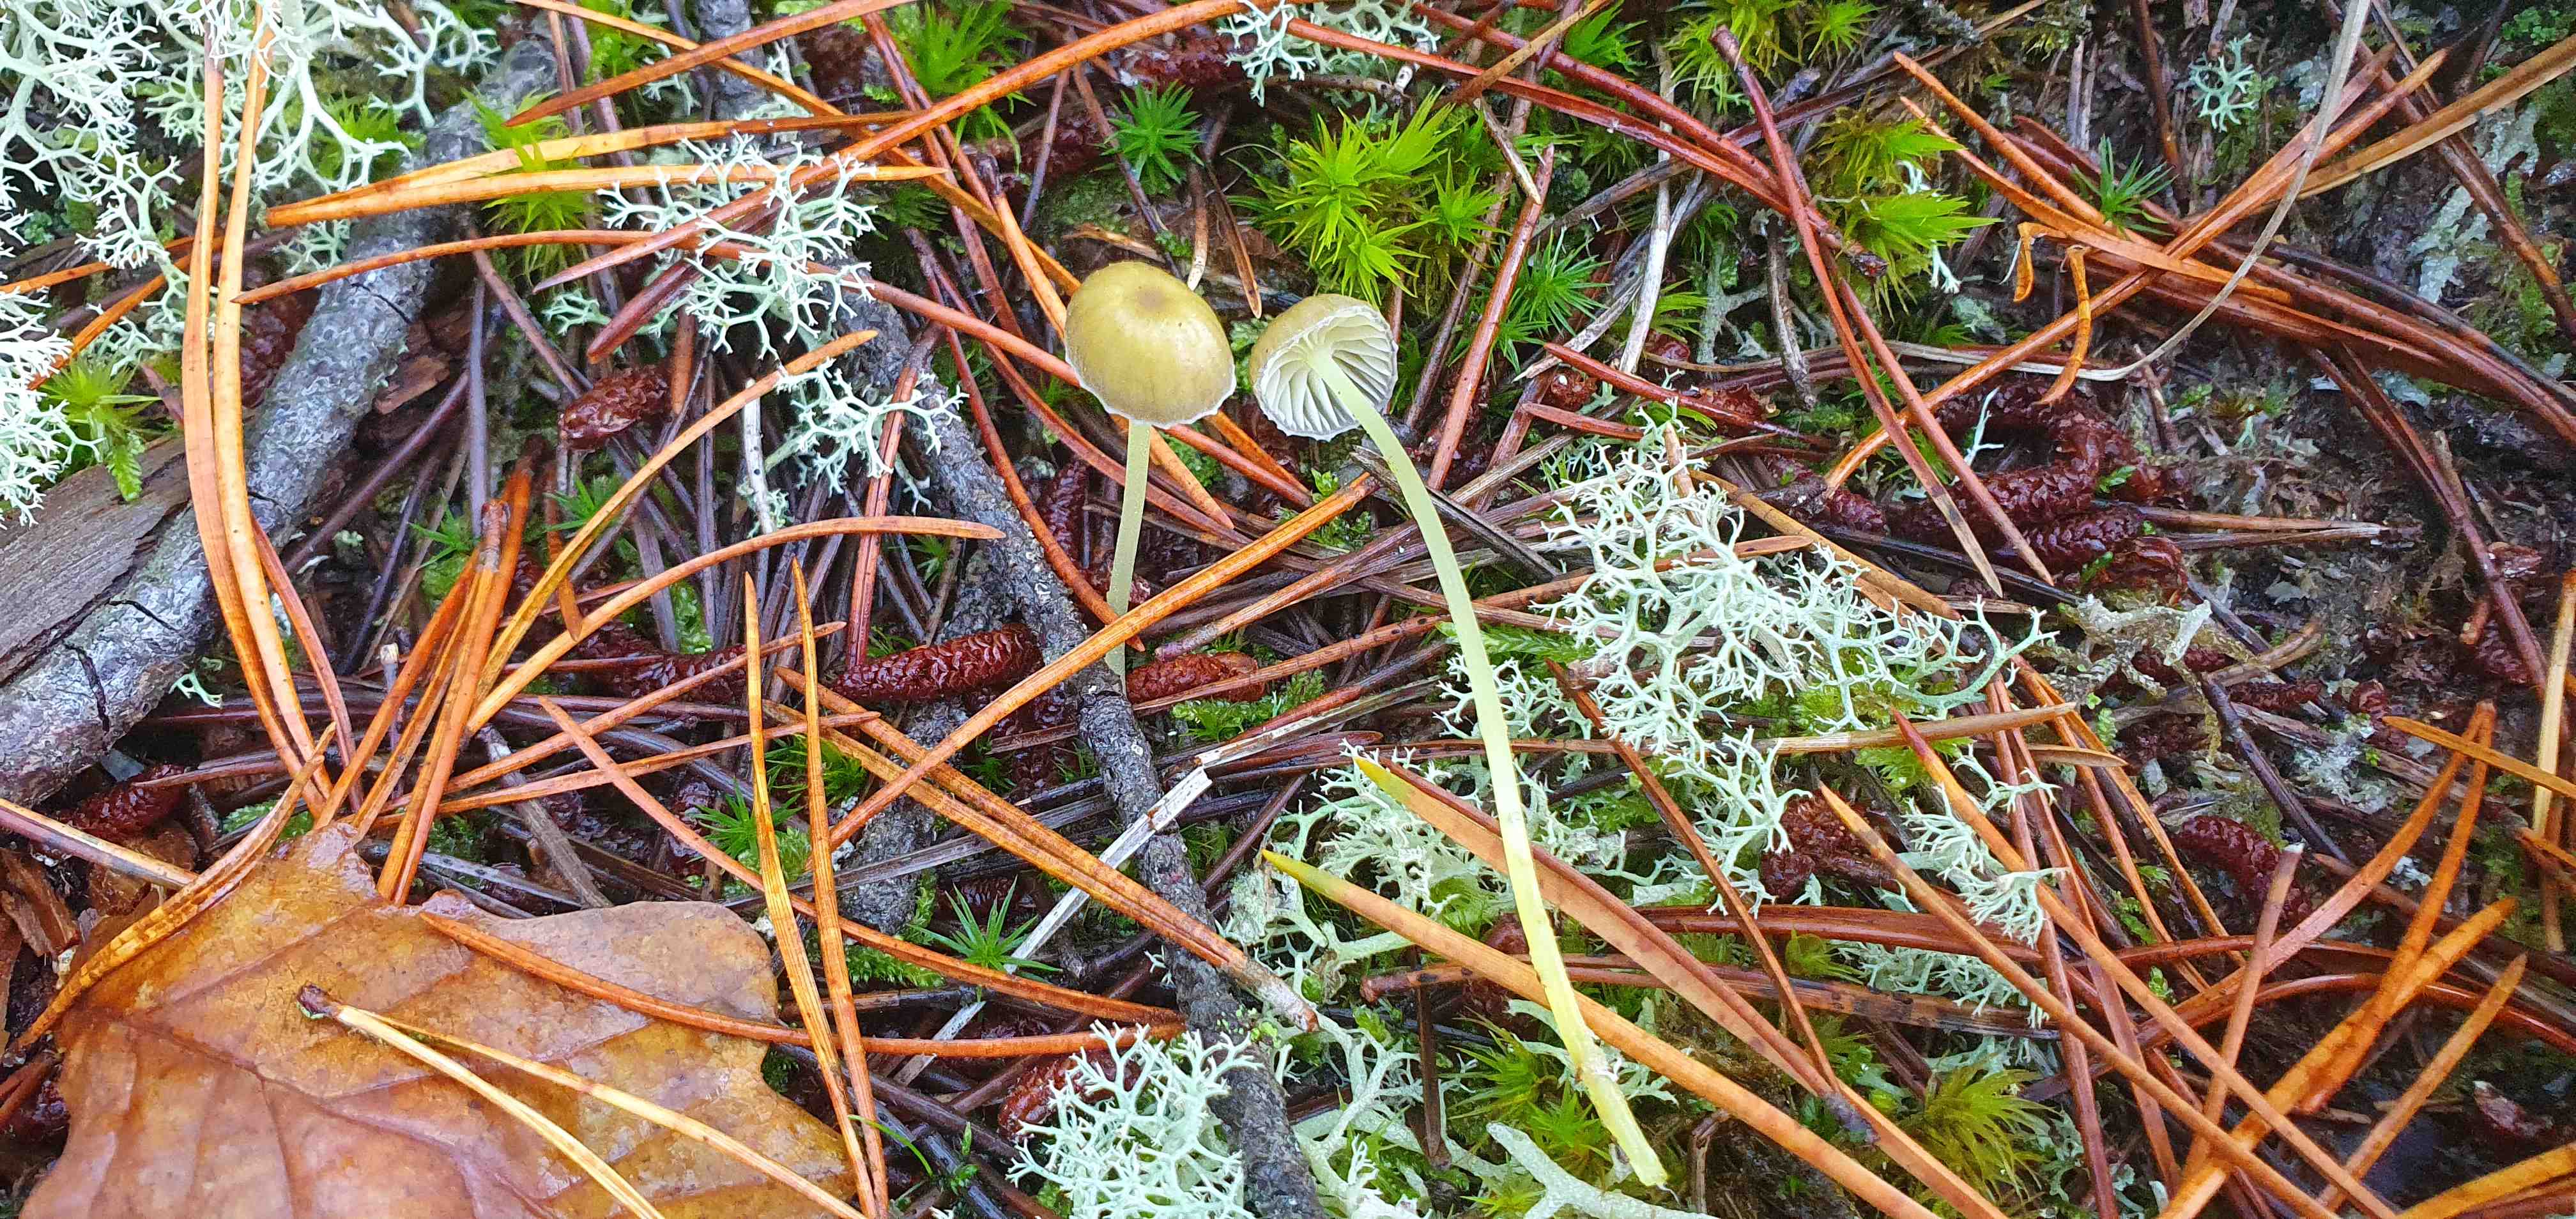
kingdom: Fungi
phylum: Basidiomycota
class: Agaricomycetes
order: Agaricales
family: Mycenaceae
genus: Mycena
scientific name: Mycena epipterygia
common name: gulstokket huesvamp
